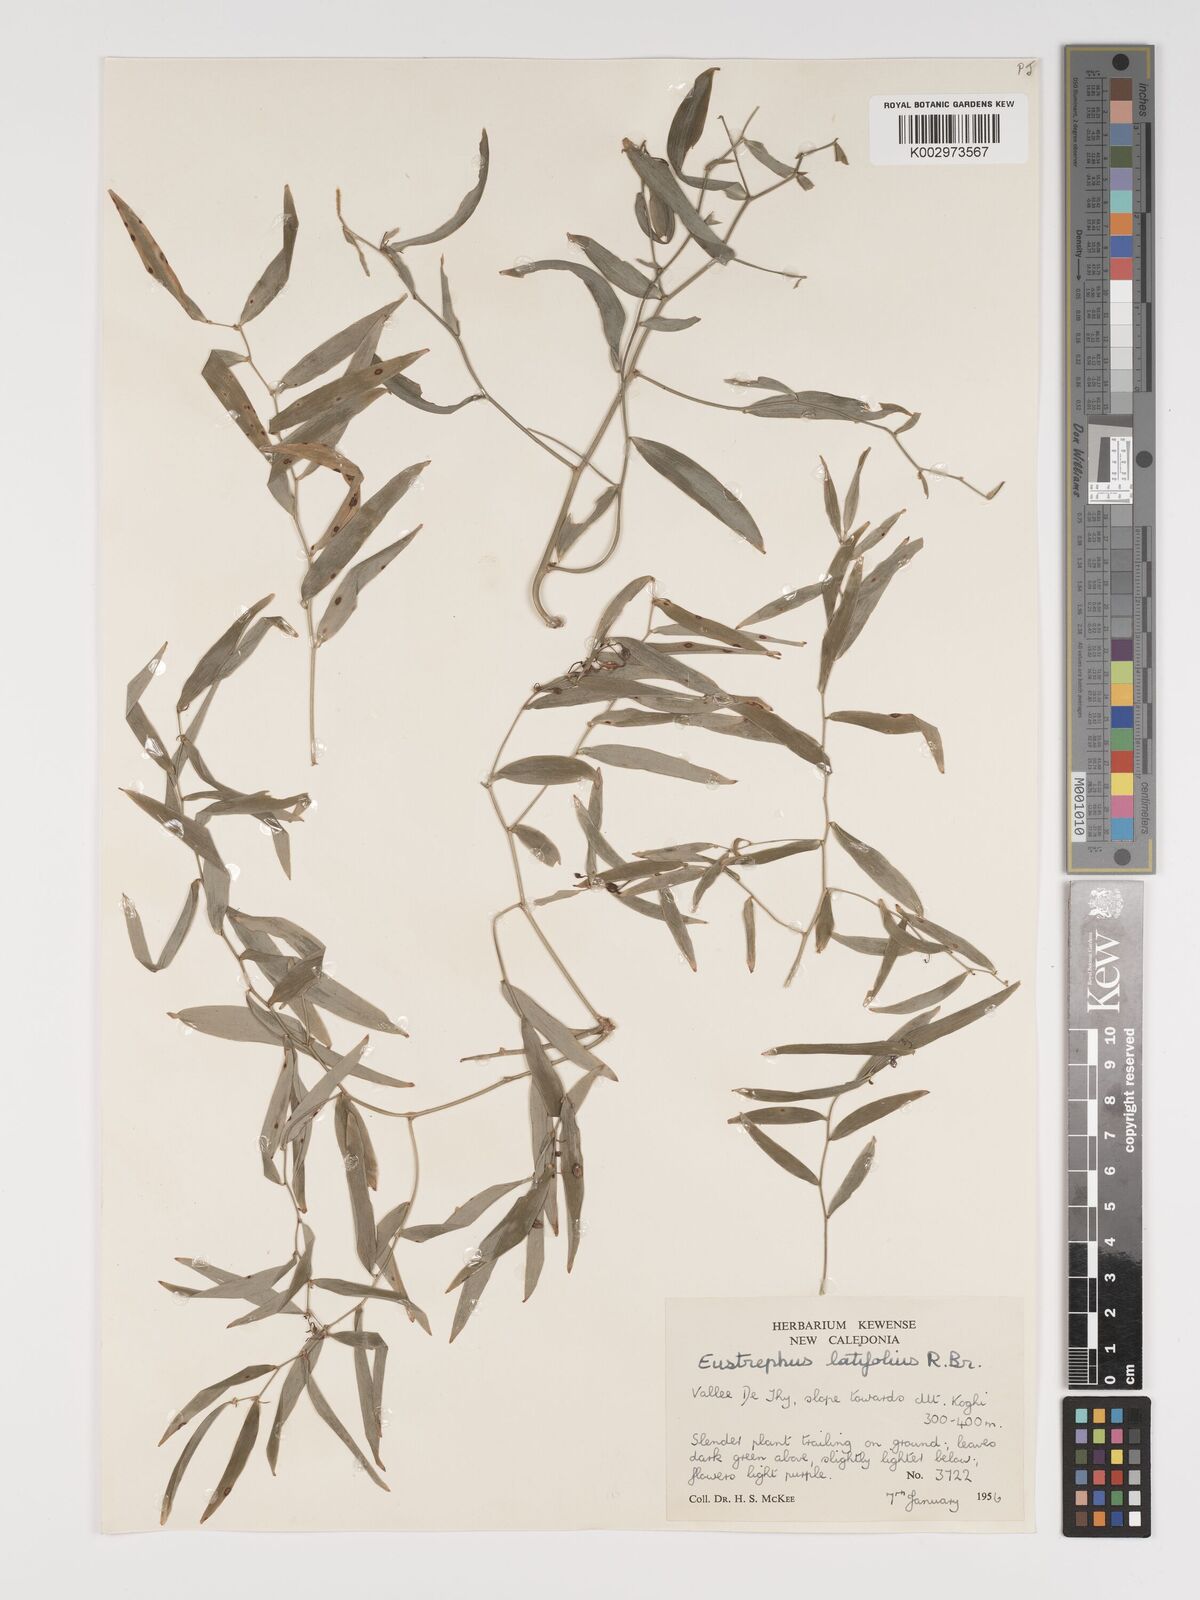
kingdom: Plantae
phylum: Tracheophyta
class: Liliopsida
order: Asparagales
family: Asparagaceae
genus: Eustrephus
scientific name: Eustrephus latifolius
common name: Orangevine
